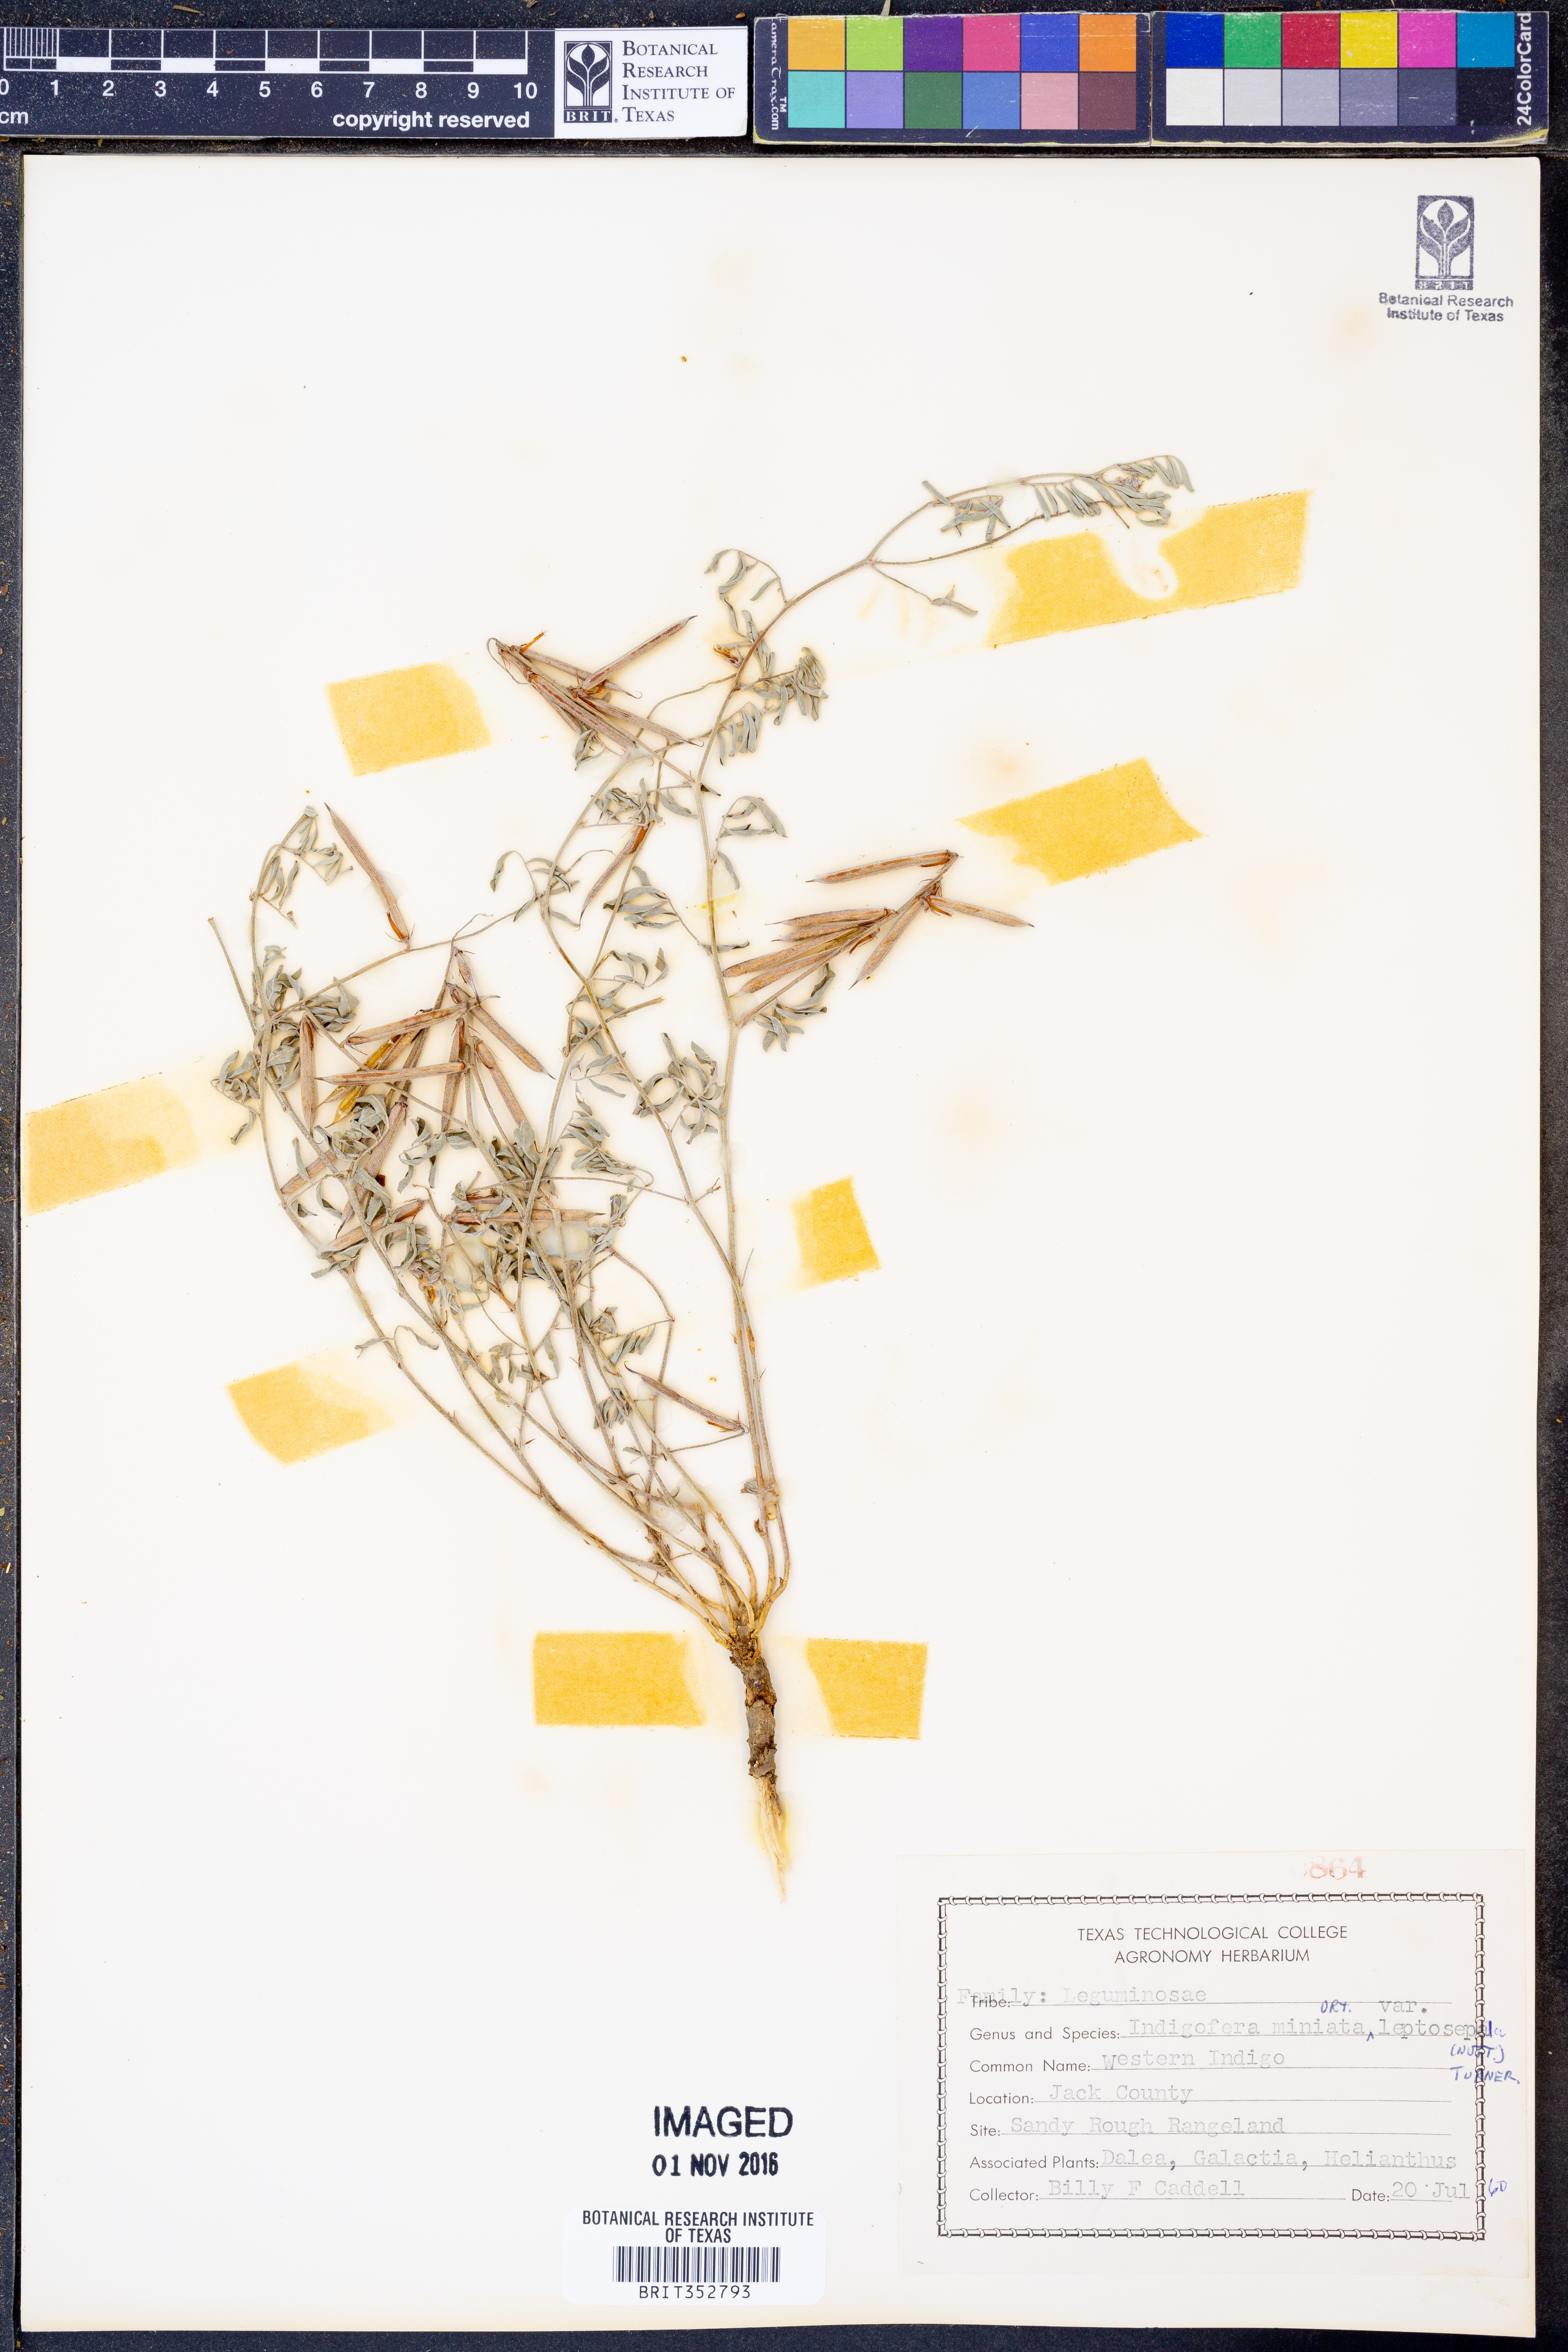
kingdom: Plantae
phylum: Tracheophyta
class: Magnoliopsida
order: Fabales
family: Fabaceae
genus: Indigofera
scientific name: Indigofera miniata
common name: Coast indigo
